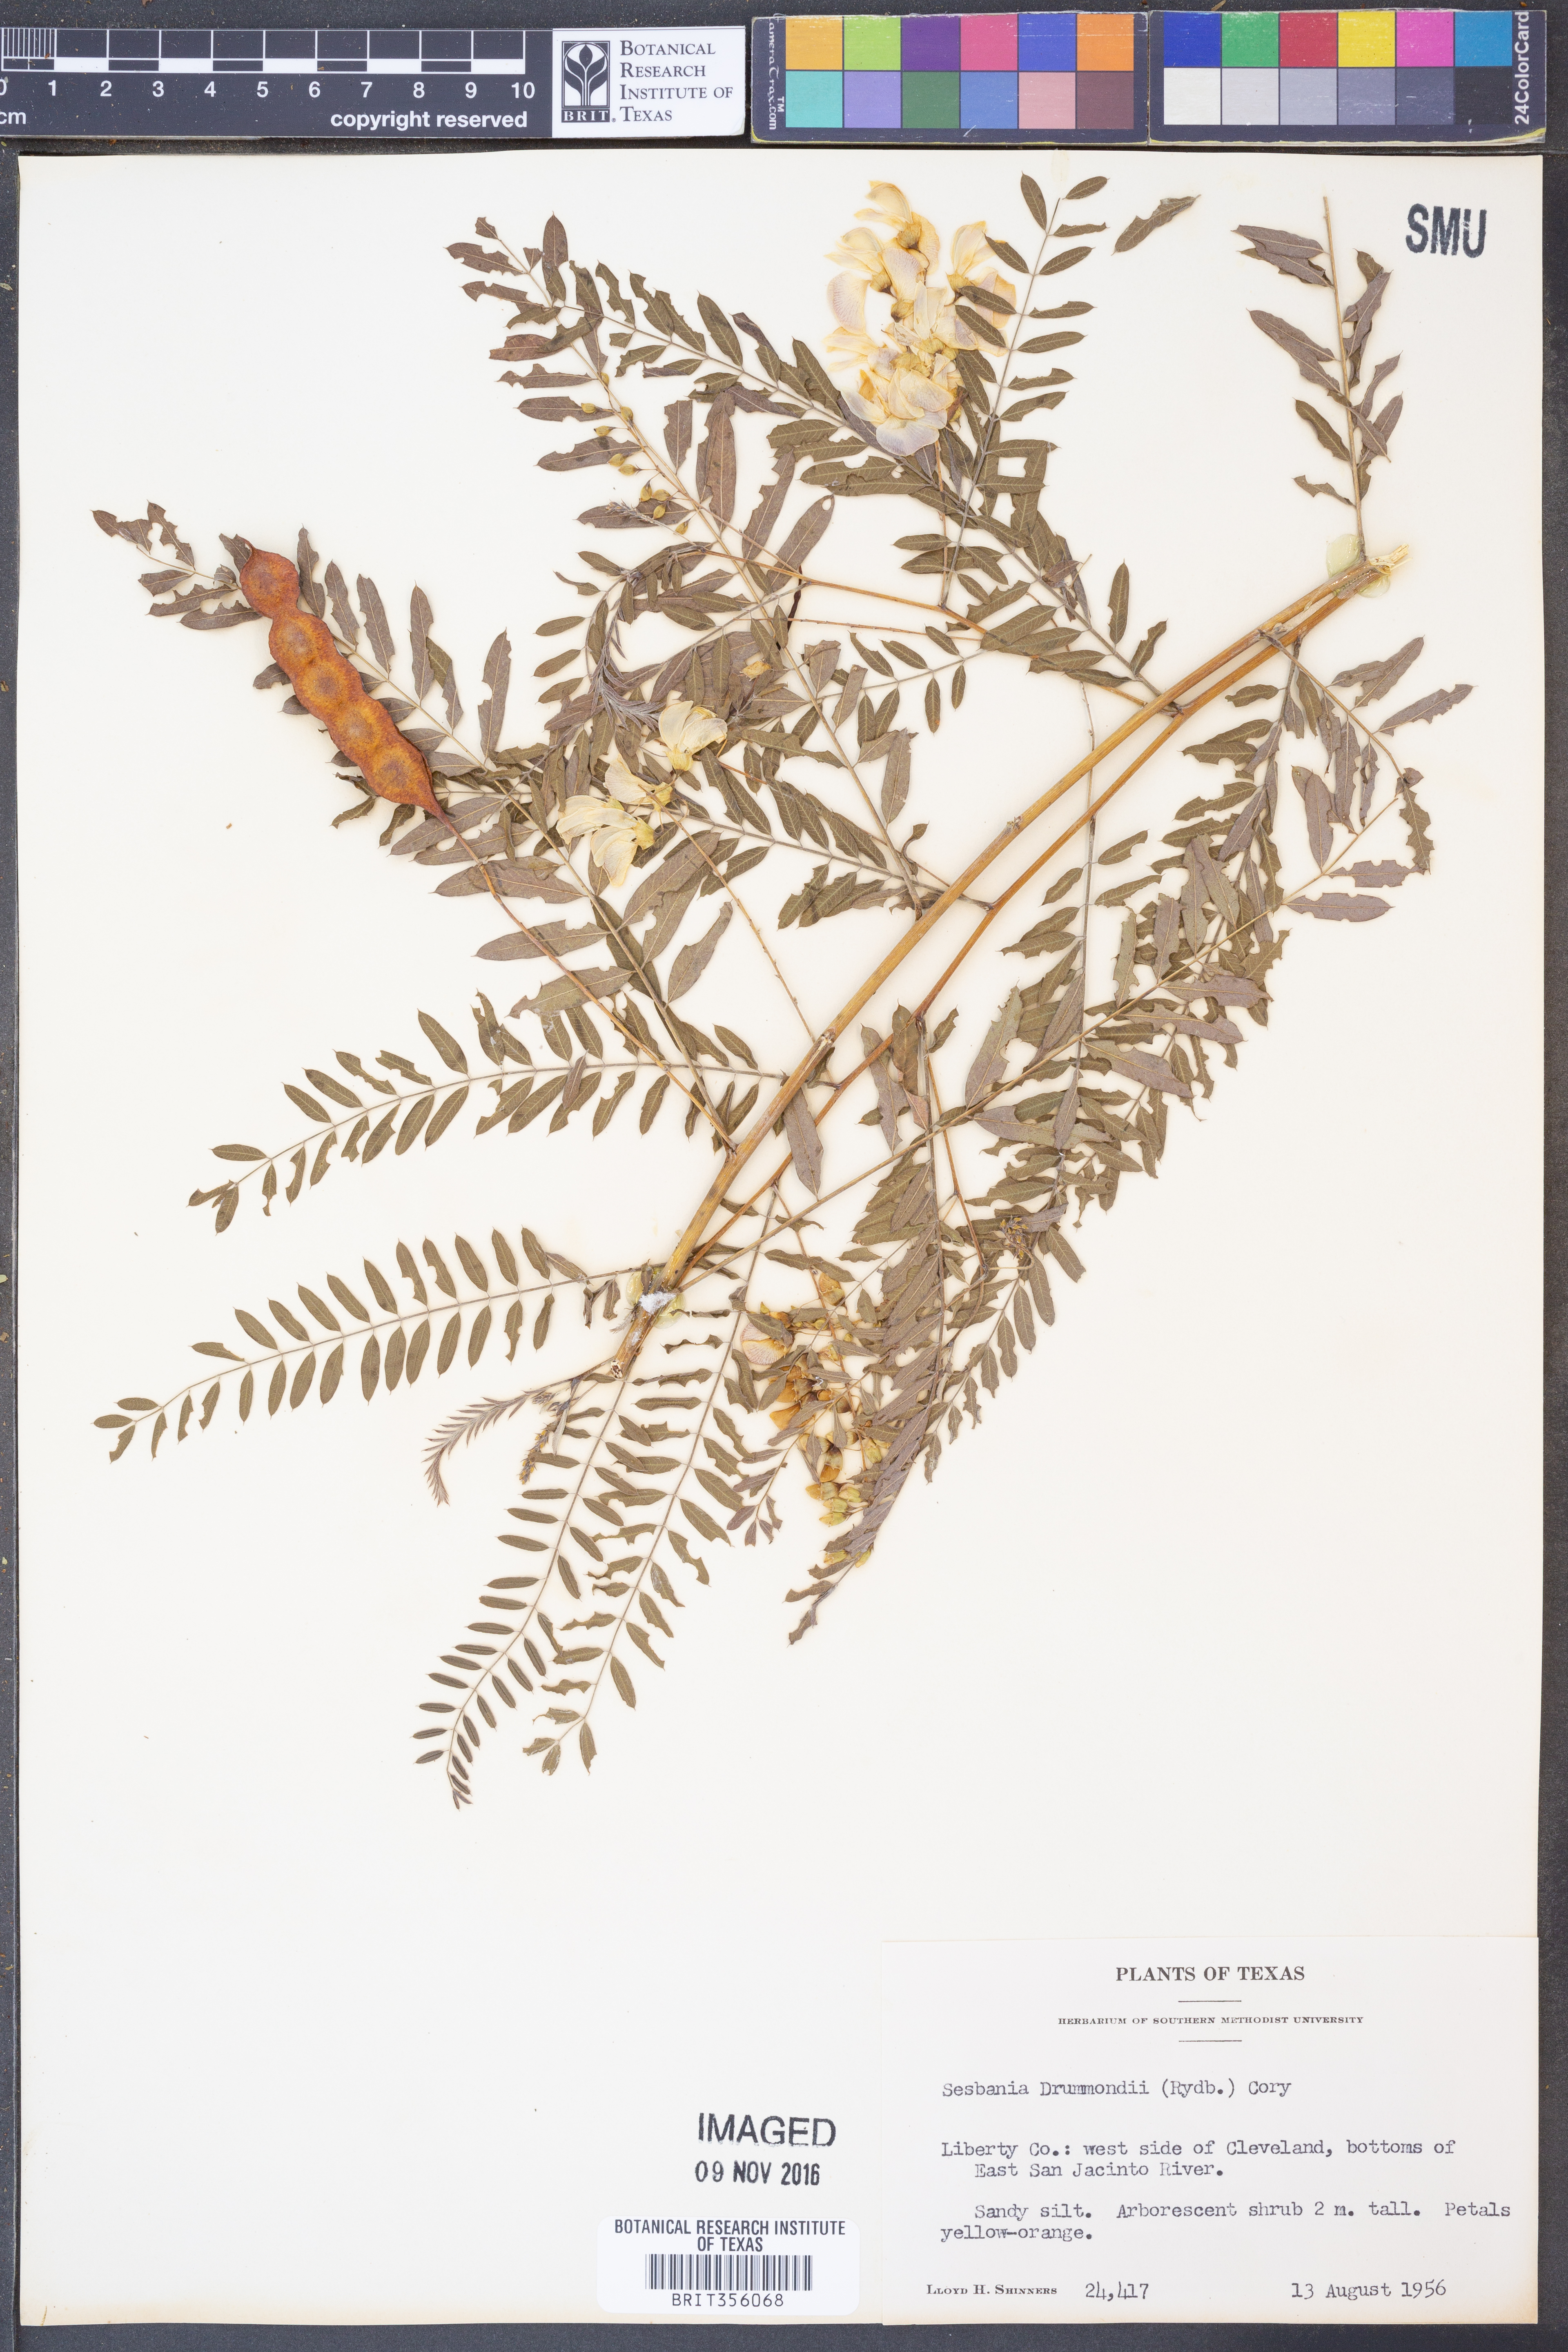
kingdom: Plantae
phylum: Tracheophyta
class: Magnoliopsida
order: Fabales
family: Fabaceae
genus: Sesbania
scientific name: Sesbania drummondii
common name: Poison-bean
